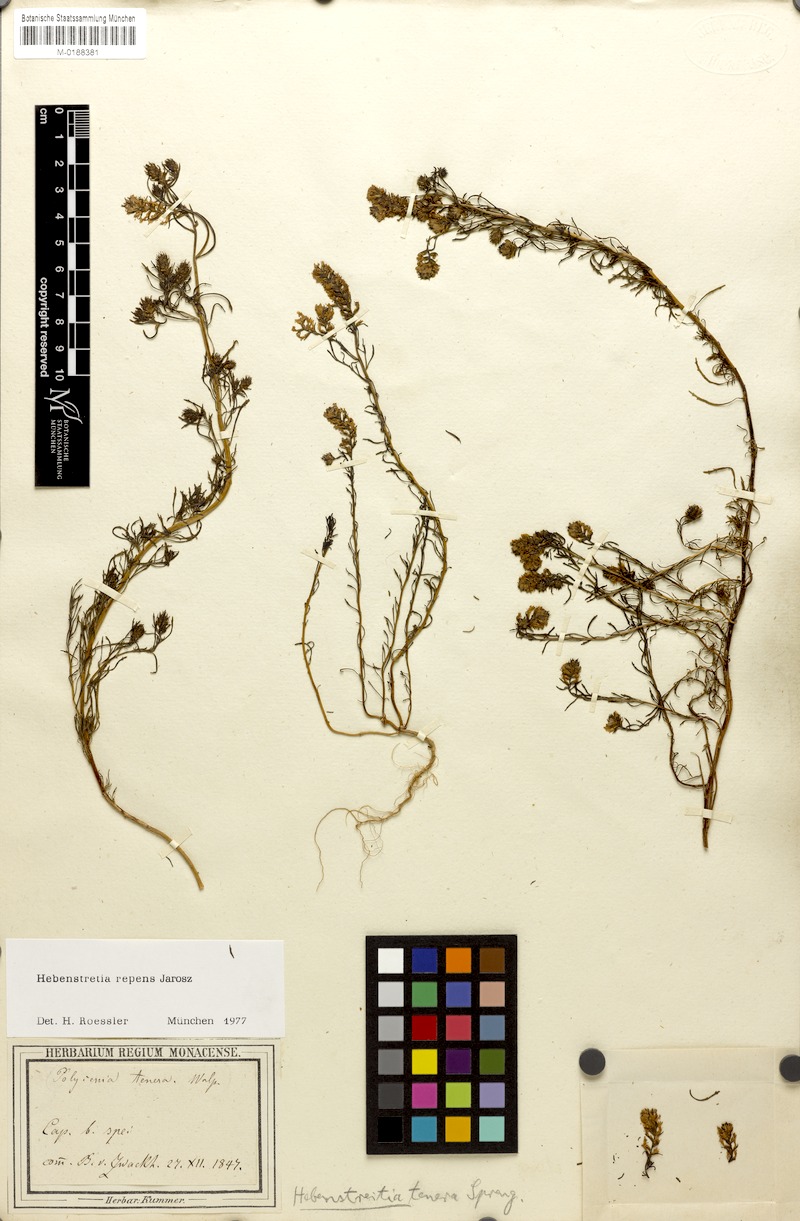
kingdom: Plantae
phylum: Tracheophyta
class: Magnoliopsida
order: Lamiales
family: Scrophulariaceae
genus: Hebenstretia
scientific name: Hebenstretia repens
